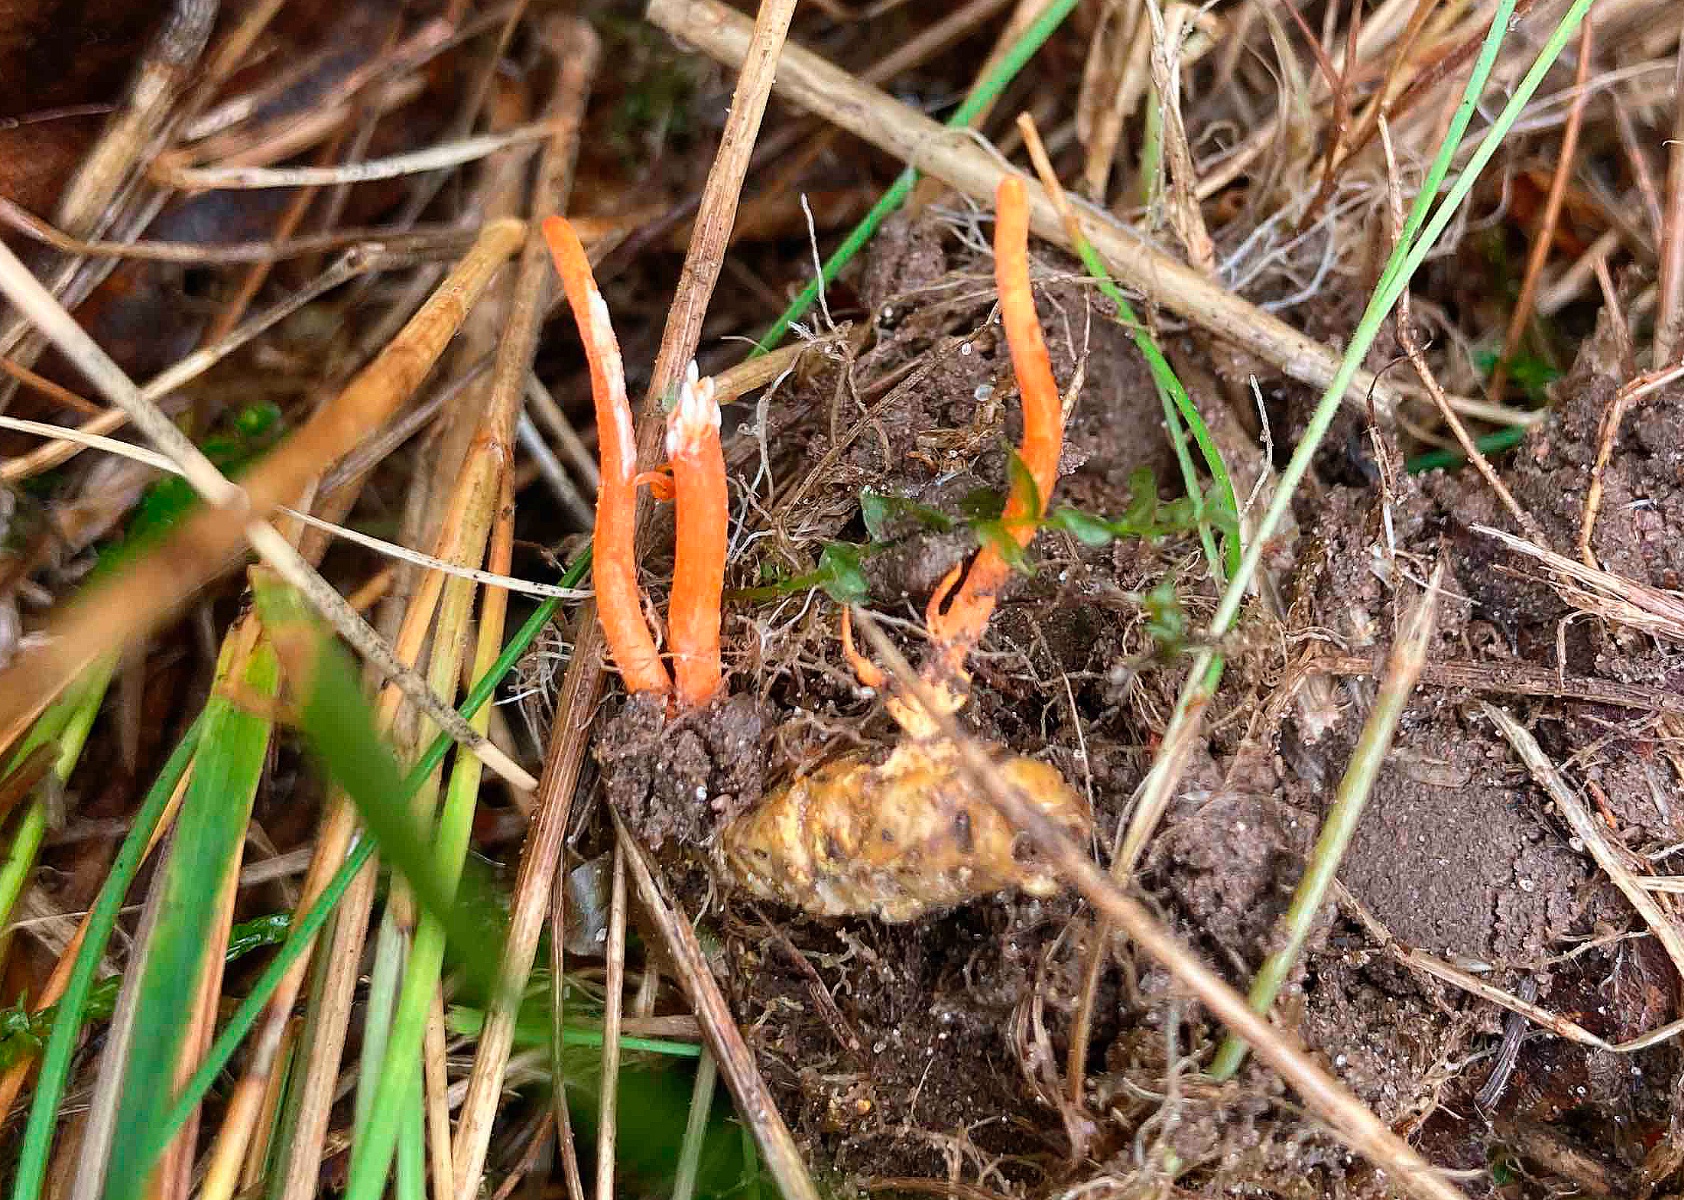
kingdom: Fungi
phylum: Ascomycota
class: Sordariomycetes
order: Hypocreales
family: Cordycipitaceae
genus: Cordyceps
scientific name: Cordyceps militaris
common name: puppe-snyltekølle
